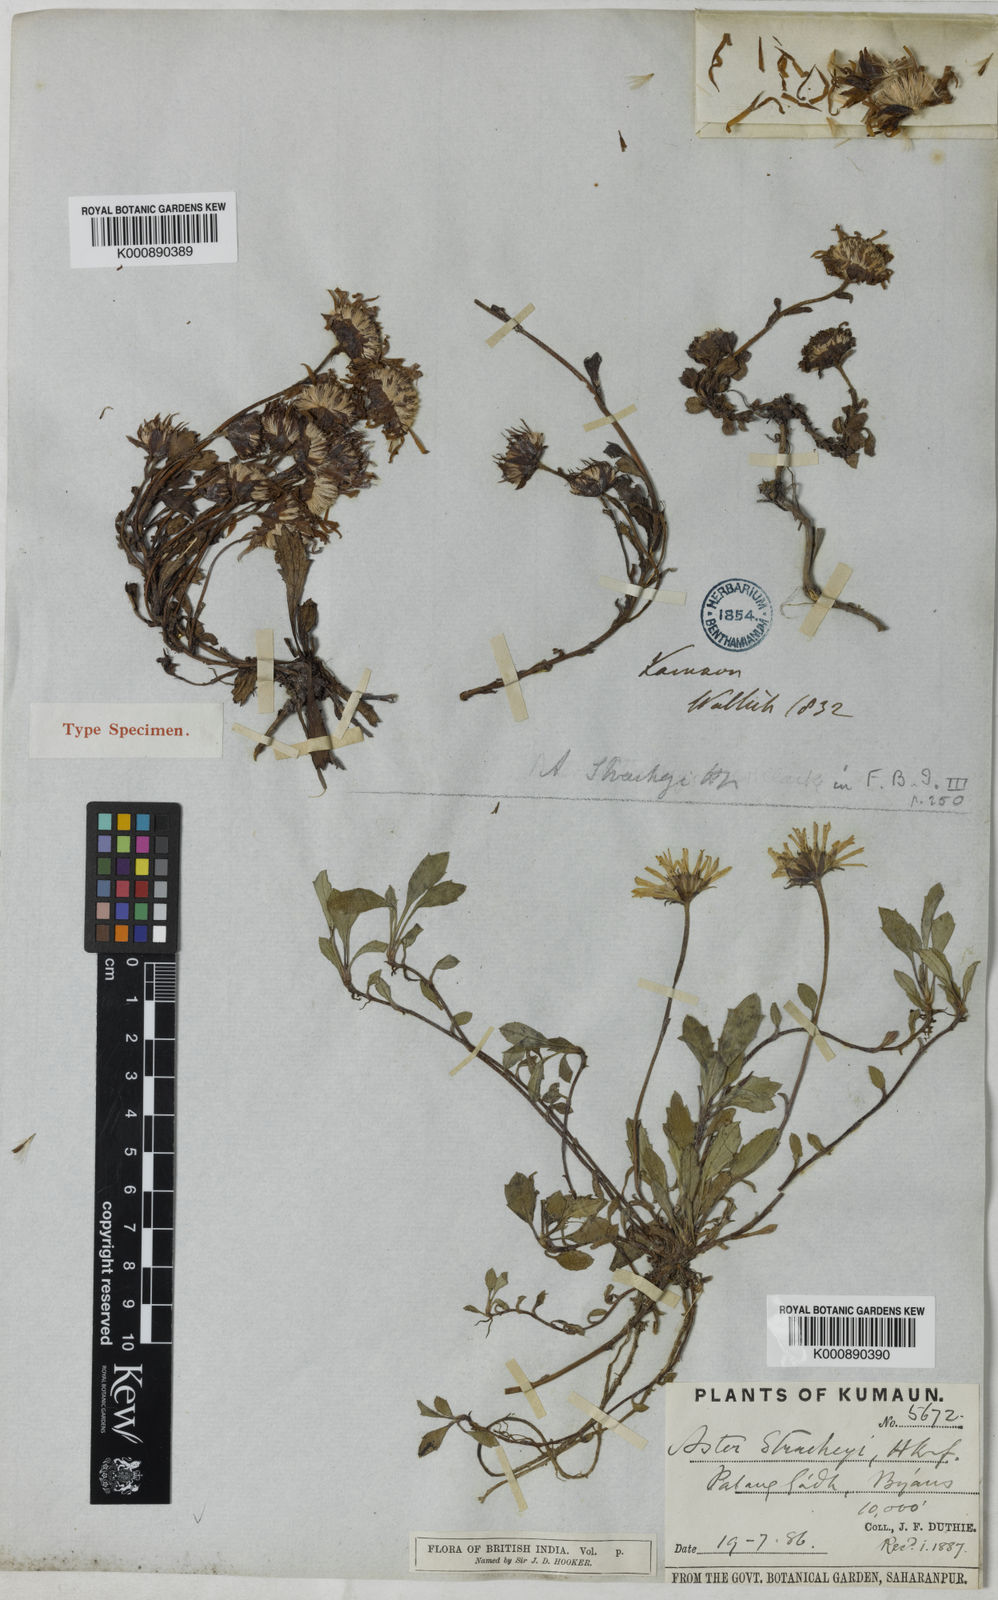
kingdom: Plantae
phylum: Tracheophyta
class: Magnoliopsida
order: Asterales
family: Asteraceae
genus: Tibetiodes
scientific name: Tibetiodes stracheyi
